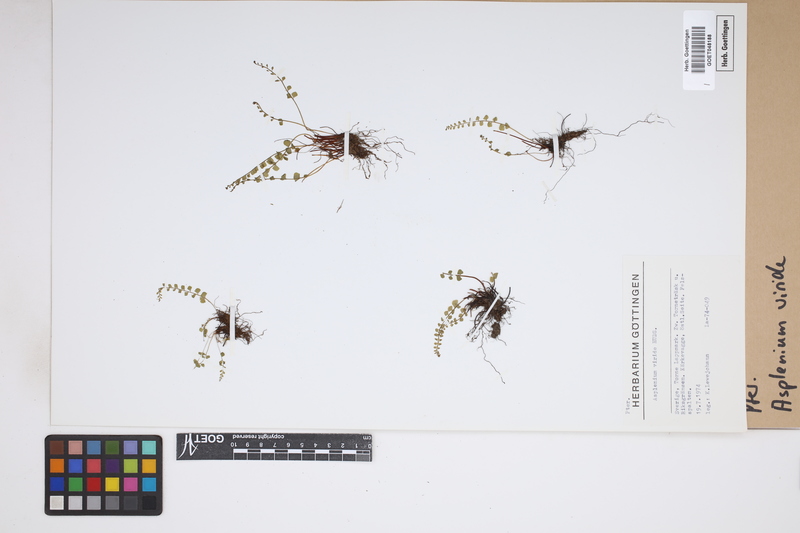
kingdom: Plantae
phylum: Tracheophyta
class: Polypodiopsida
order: Polypodiales
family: Aspleniaceae
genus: Asplenium
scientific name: Asplenium viride
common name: Green spleenwort
